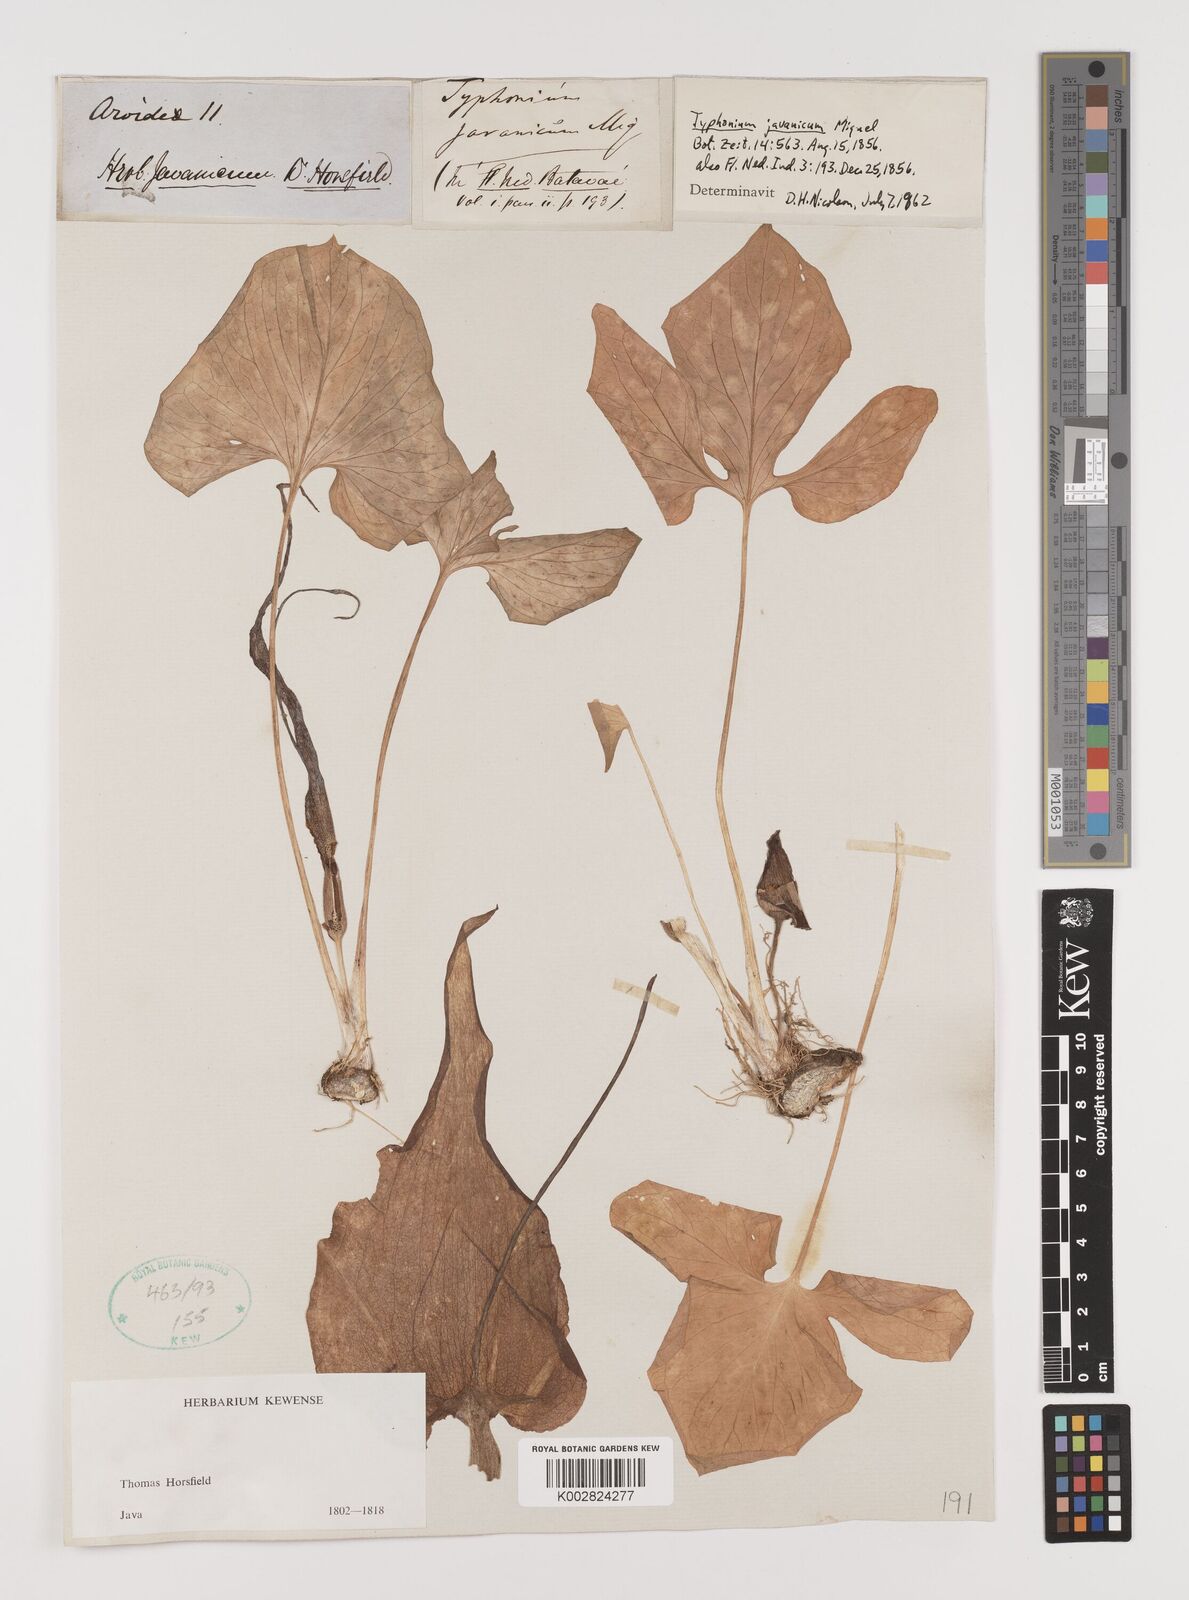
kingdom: Plantae
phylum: Tracheophyta
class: Liliopsida
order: Alismatales
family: Araceae
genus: Typhonium
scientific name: Typhonium roxburghii
